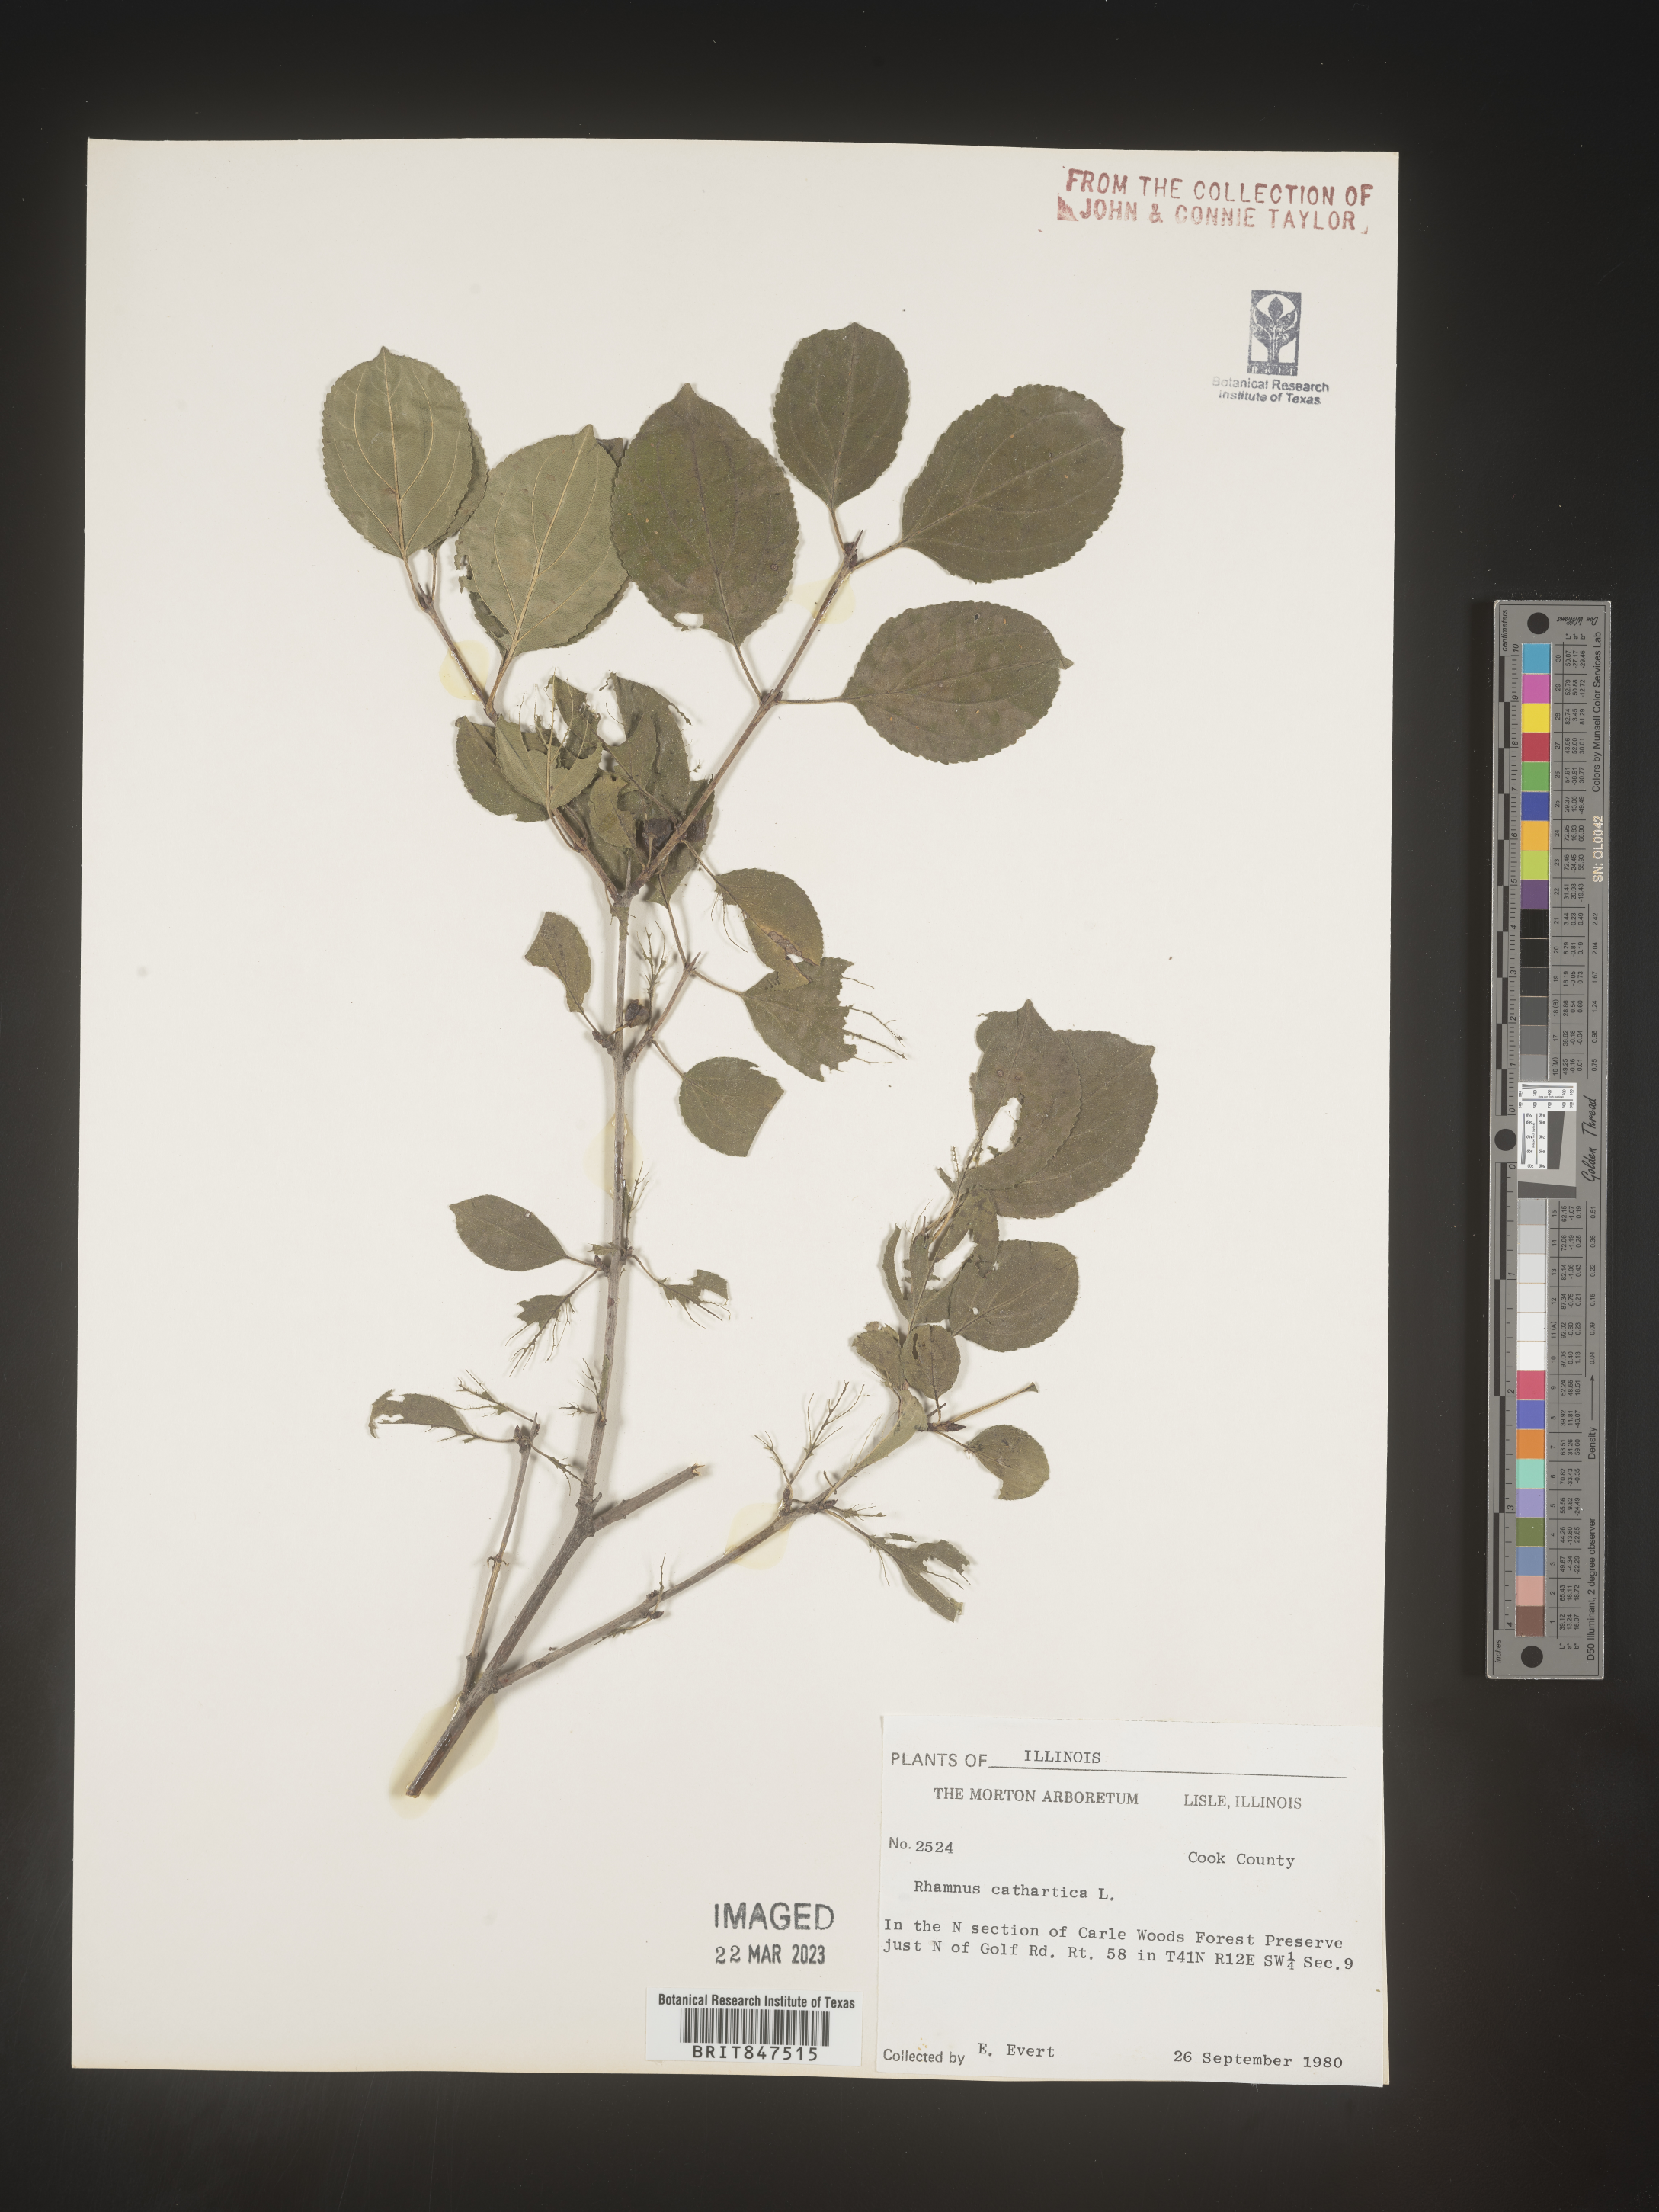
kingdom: Plantae
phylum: Tracheophyta
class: Magnoliopsida
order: Rosales
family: Rhamnaceae
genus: Rhamnus
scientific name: Rhamnus cathartica
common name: Common buckthorn
